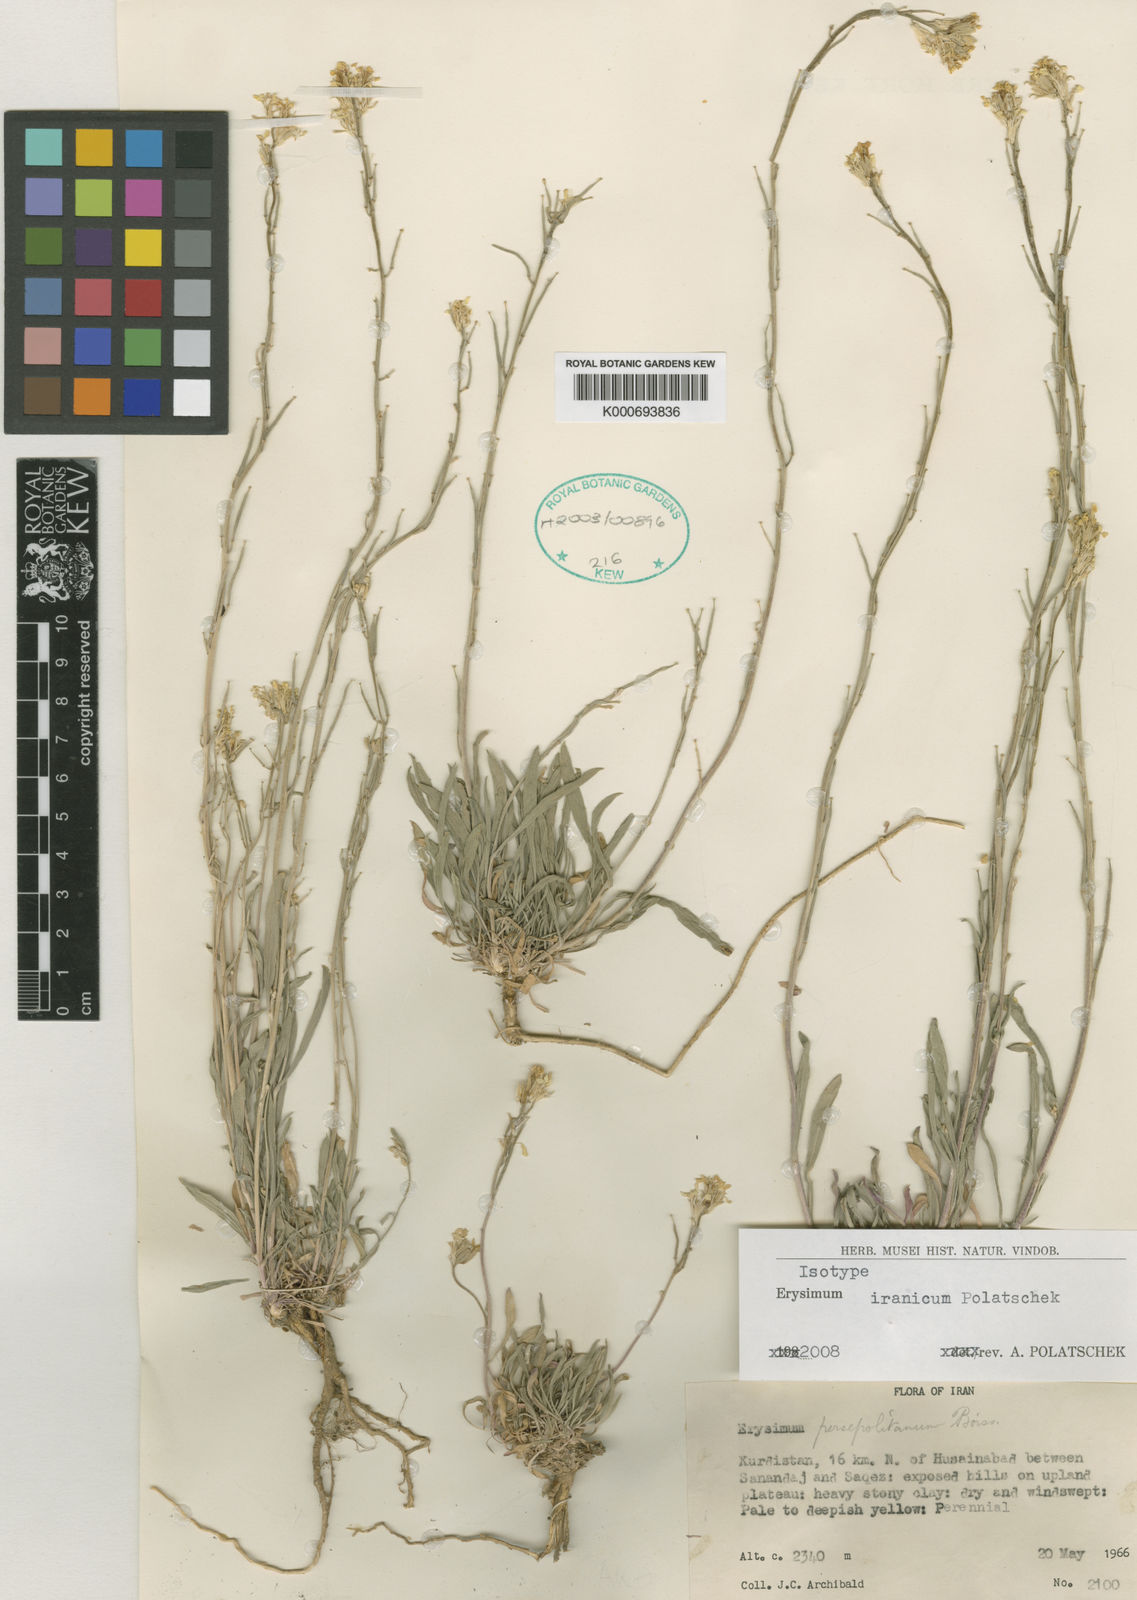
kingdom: Plantae
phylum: Tracheophyta
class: Magnoliopsida
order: Brassicales
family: Brassicaceae
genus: Erysimum
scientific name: Erysimum sisymbrioides
